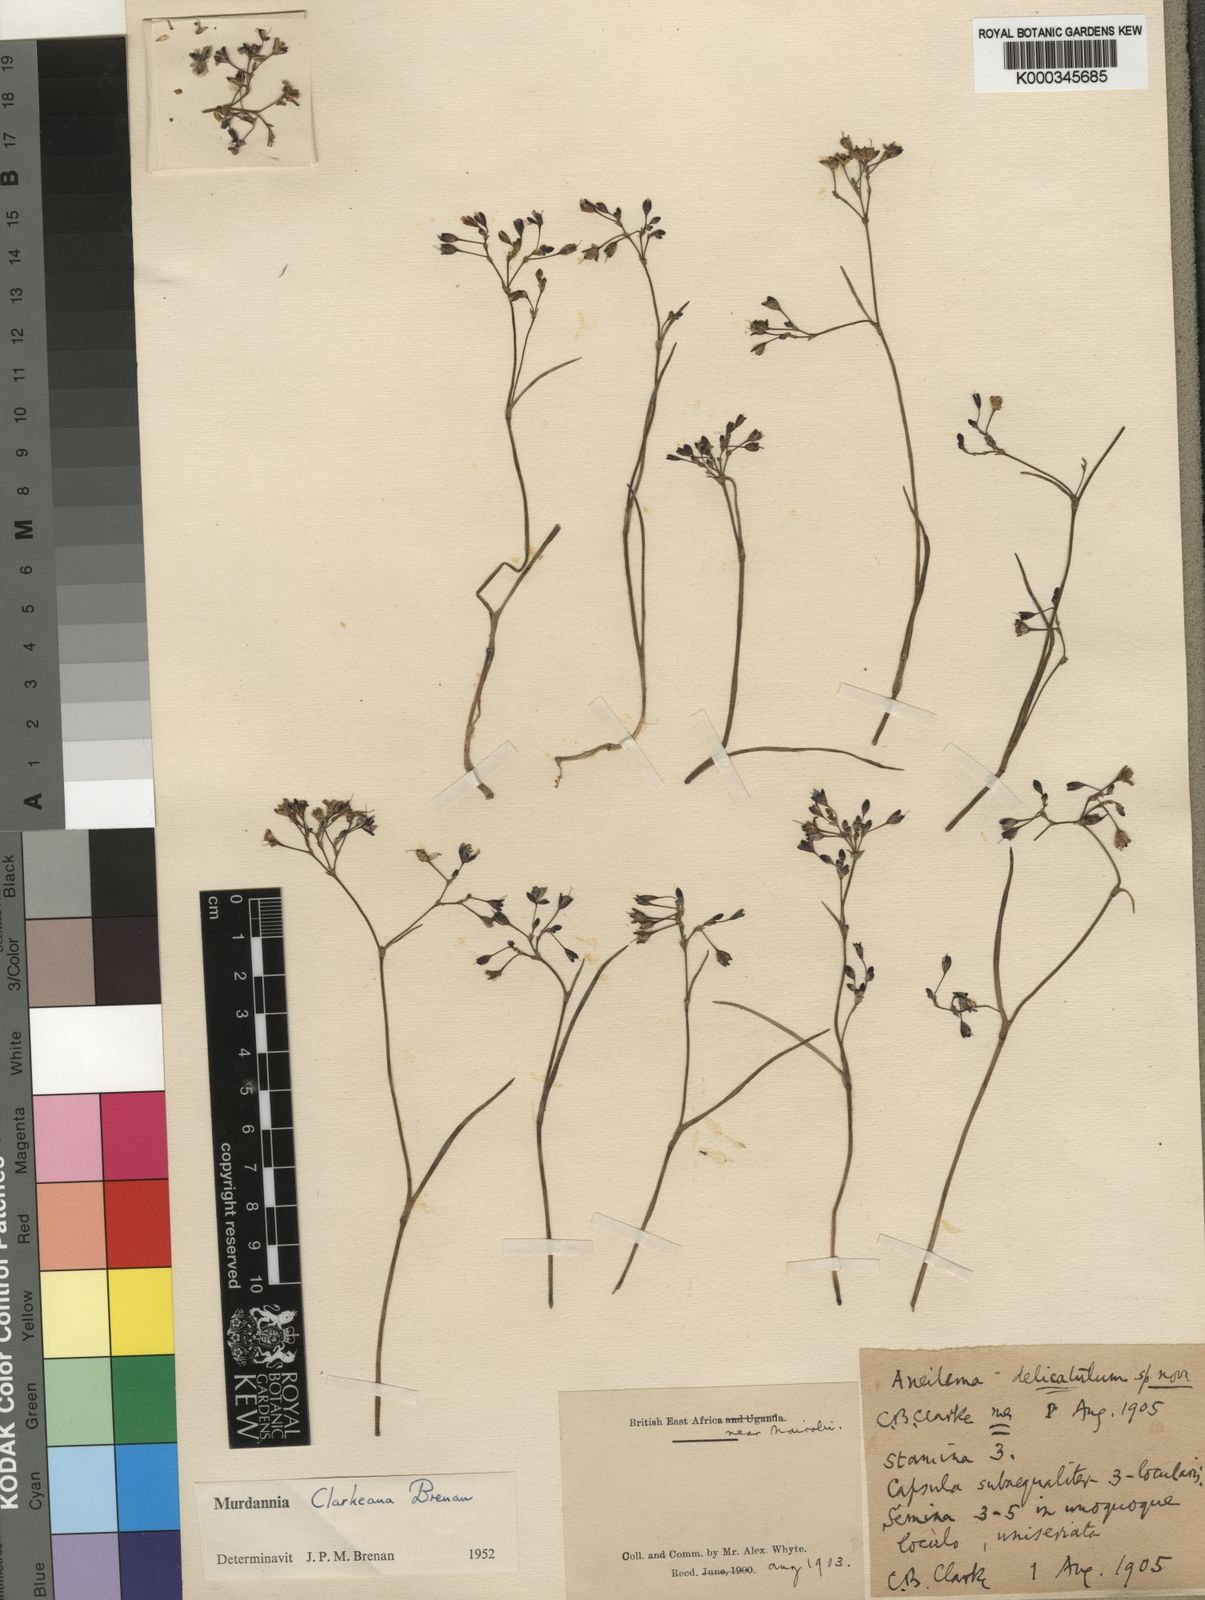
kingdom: Plantae
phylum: Tracheophyta
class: Liliopsida
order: Commelinales
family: Commelinaceae
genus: Murdannia
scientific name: Murdannia clarkeana
